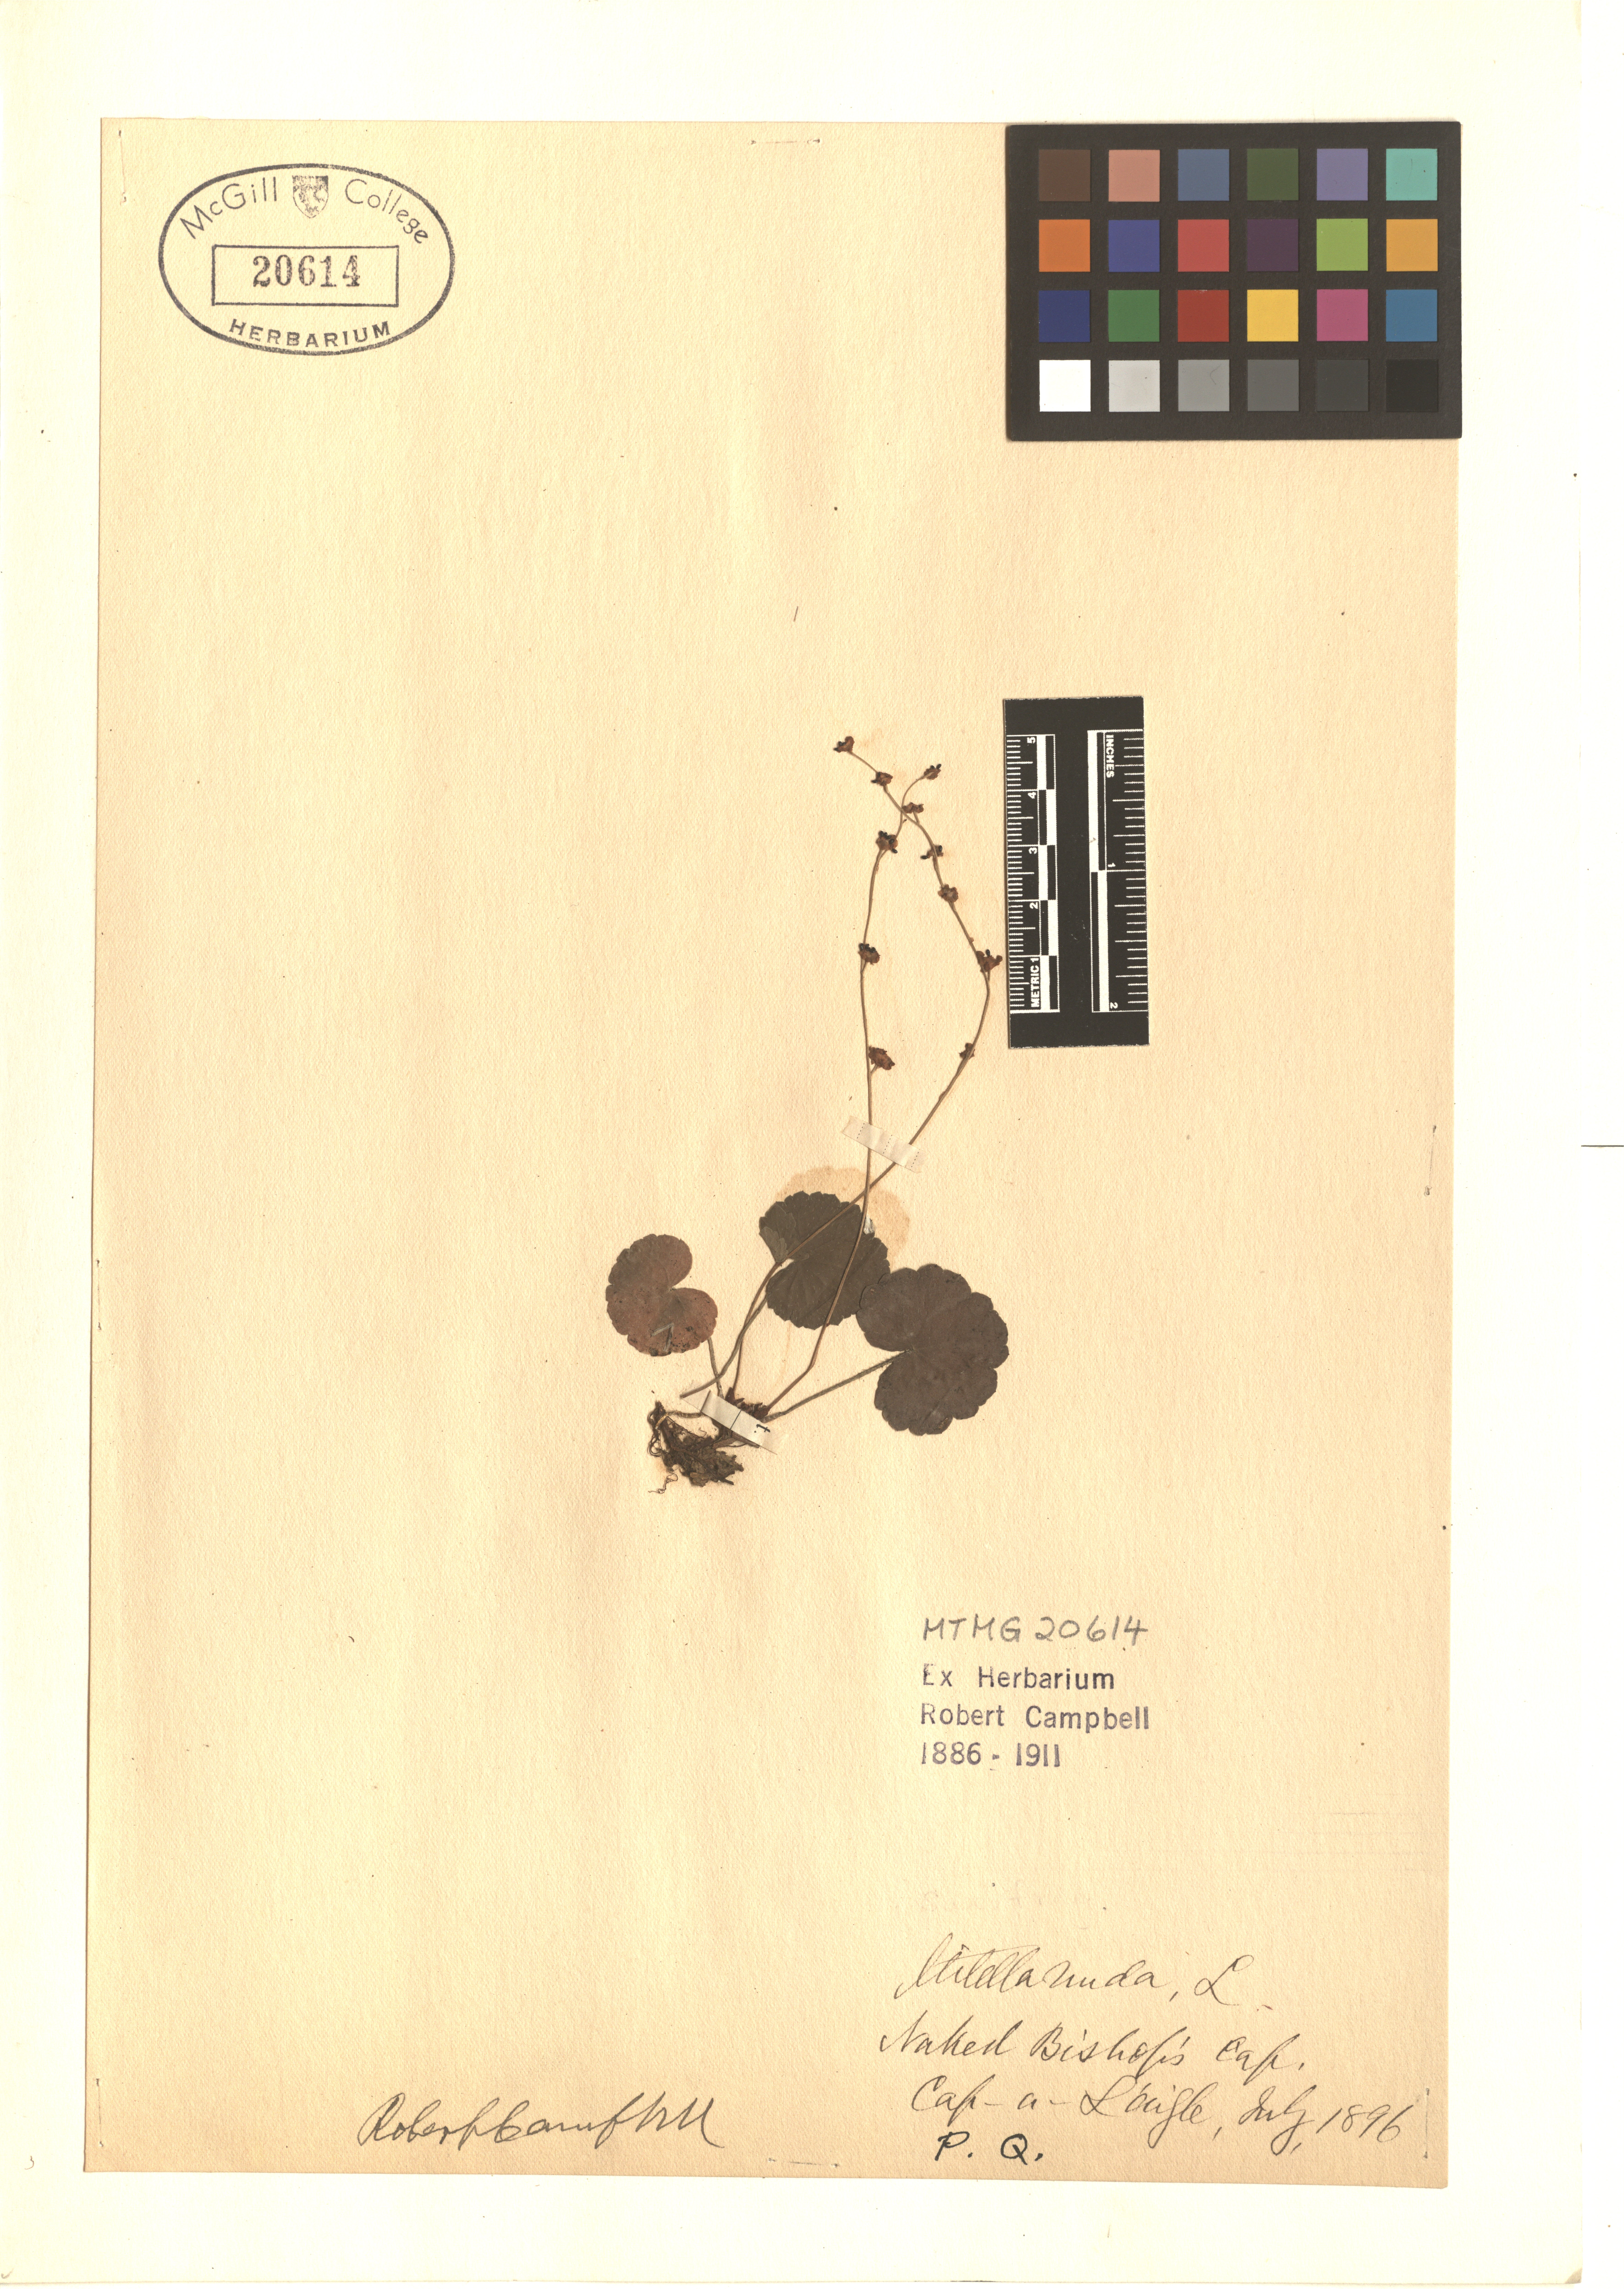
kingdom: Plantae
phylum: Tracheophyta
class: Magnoliopsida
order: Saxifragales
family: Saxifragaceae
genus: Mitella
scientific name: Mitella nuda
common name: Bare-stemmed bishop's-cap
